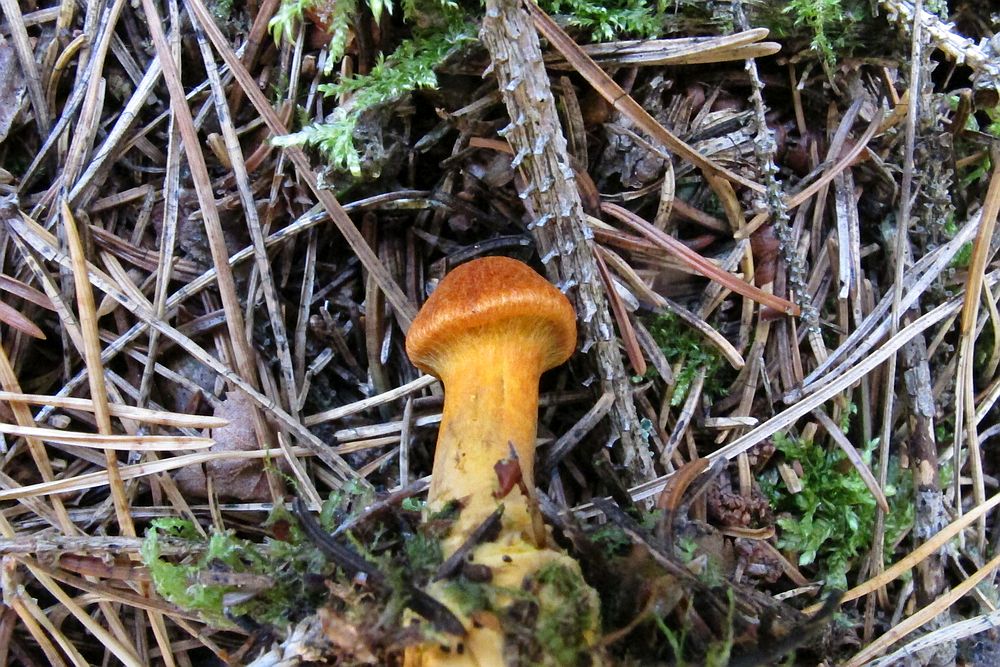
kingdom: Fungi
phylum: Basidiomycota
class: Agaricomycetes
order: Agaricales
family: Cortinariaceae
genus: Cortinarius
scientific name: Cortinarius malicorius
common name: grønkødet slørhat
